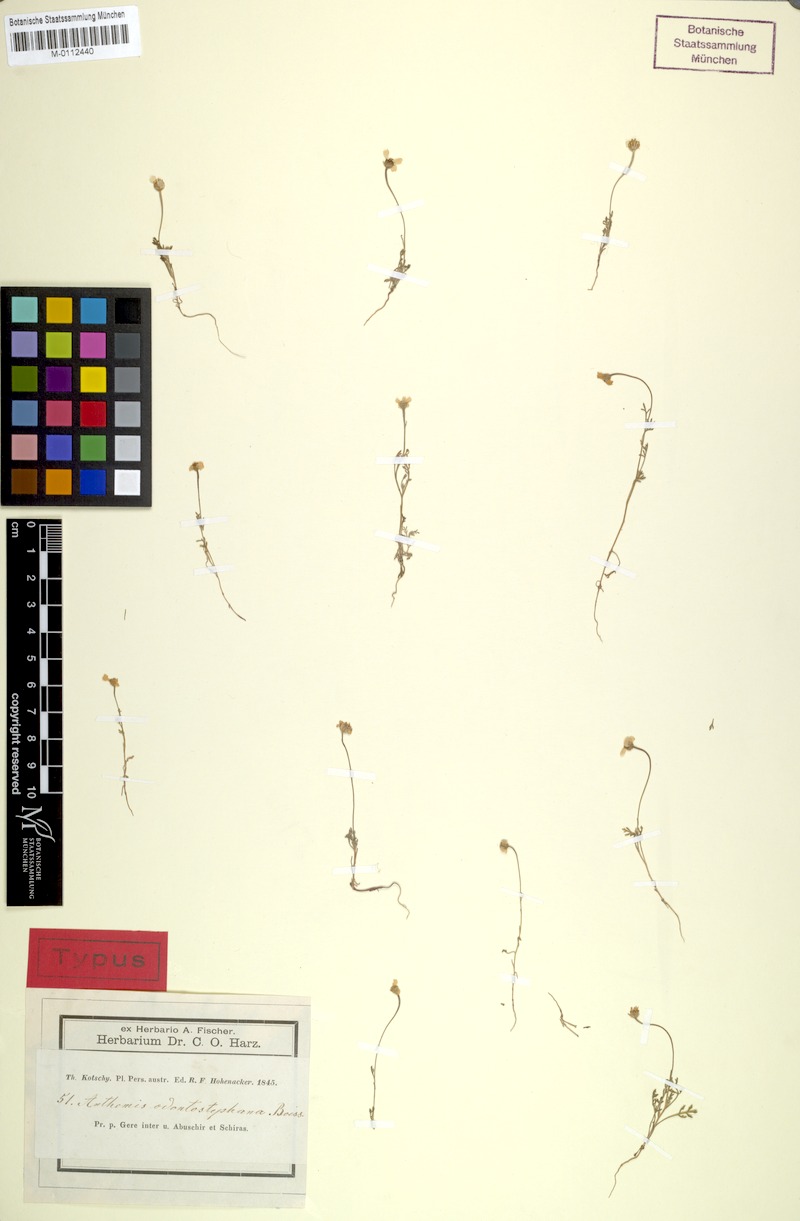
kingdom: Plantae
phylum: Tracheophyta
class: Magnoliopsida
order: Asterales
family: Asteraceae
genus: Anthemis
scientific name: Anthemis odontostephana
